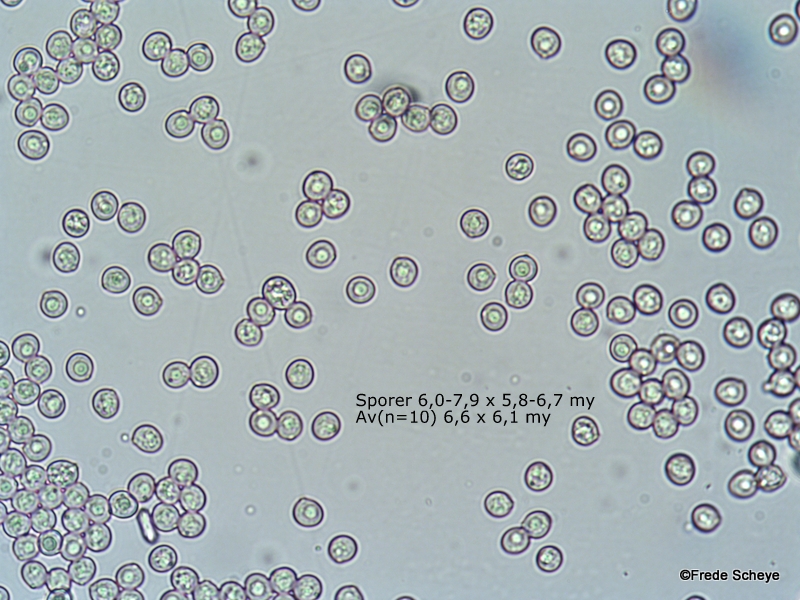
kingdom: Fungi
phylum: Basidiomycota
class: Agaricomycetes
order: Agaricales
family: Pluteaceae
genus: Pluteus
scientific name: Pluteus romellii
